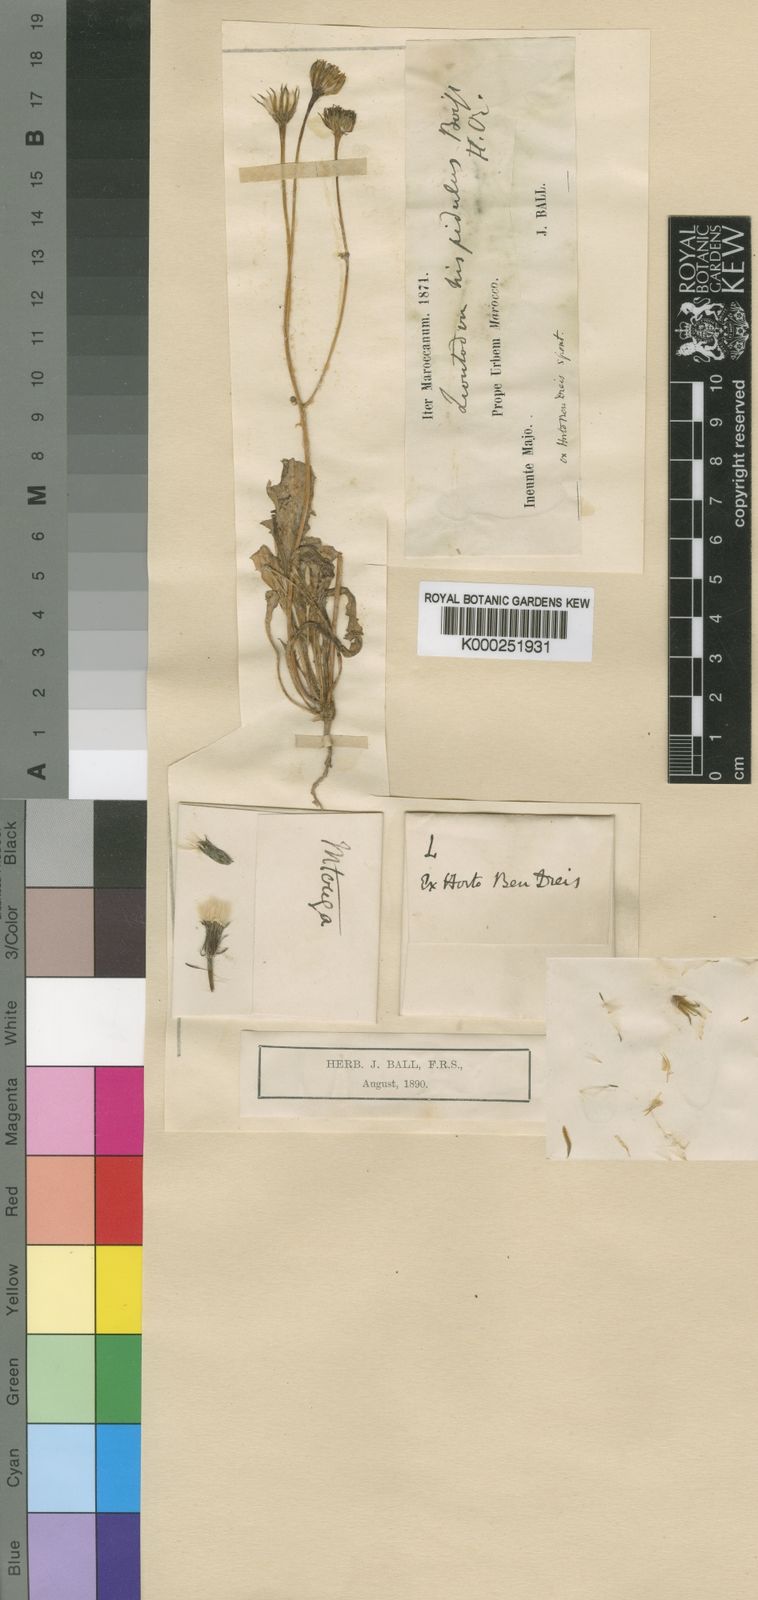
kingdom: Plantae
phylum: Tracheophyta
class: Magnoliopsida
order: Asterales
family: Asteraceae
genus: Leontodon
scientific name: Leontodon
